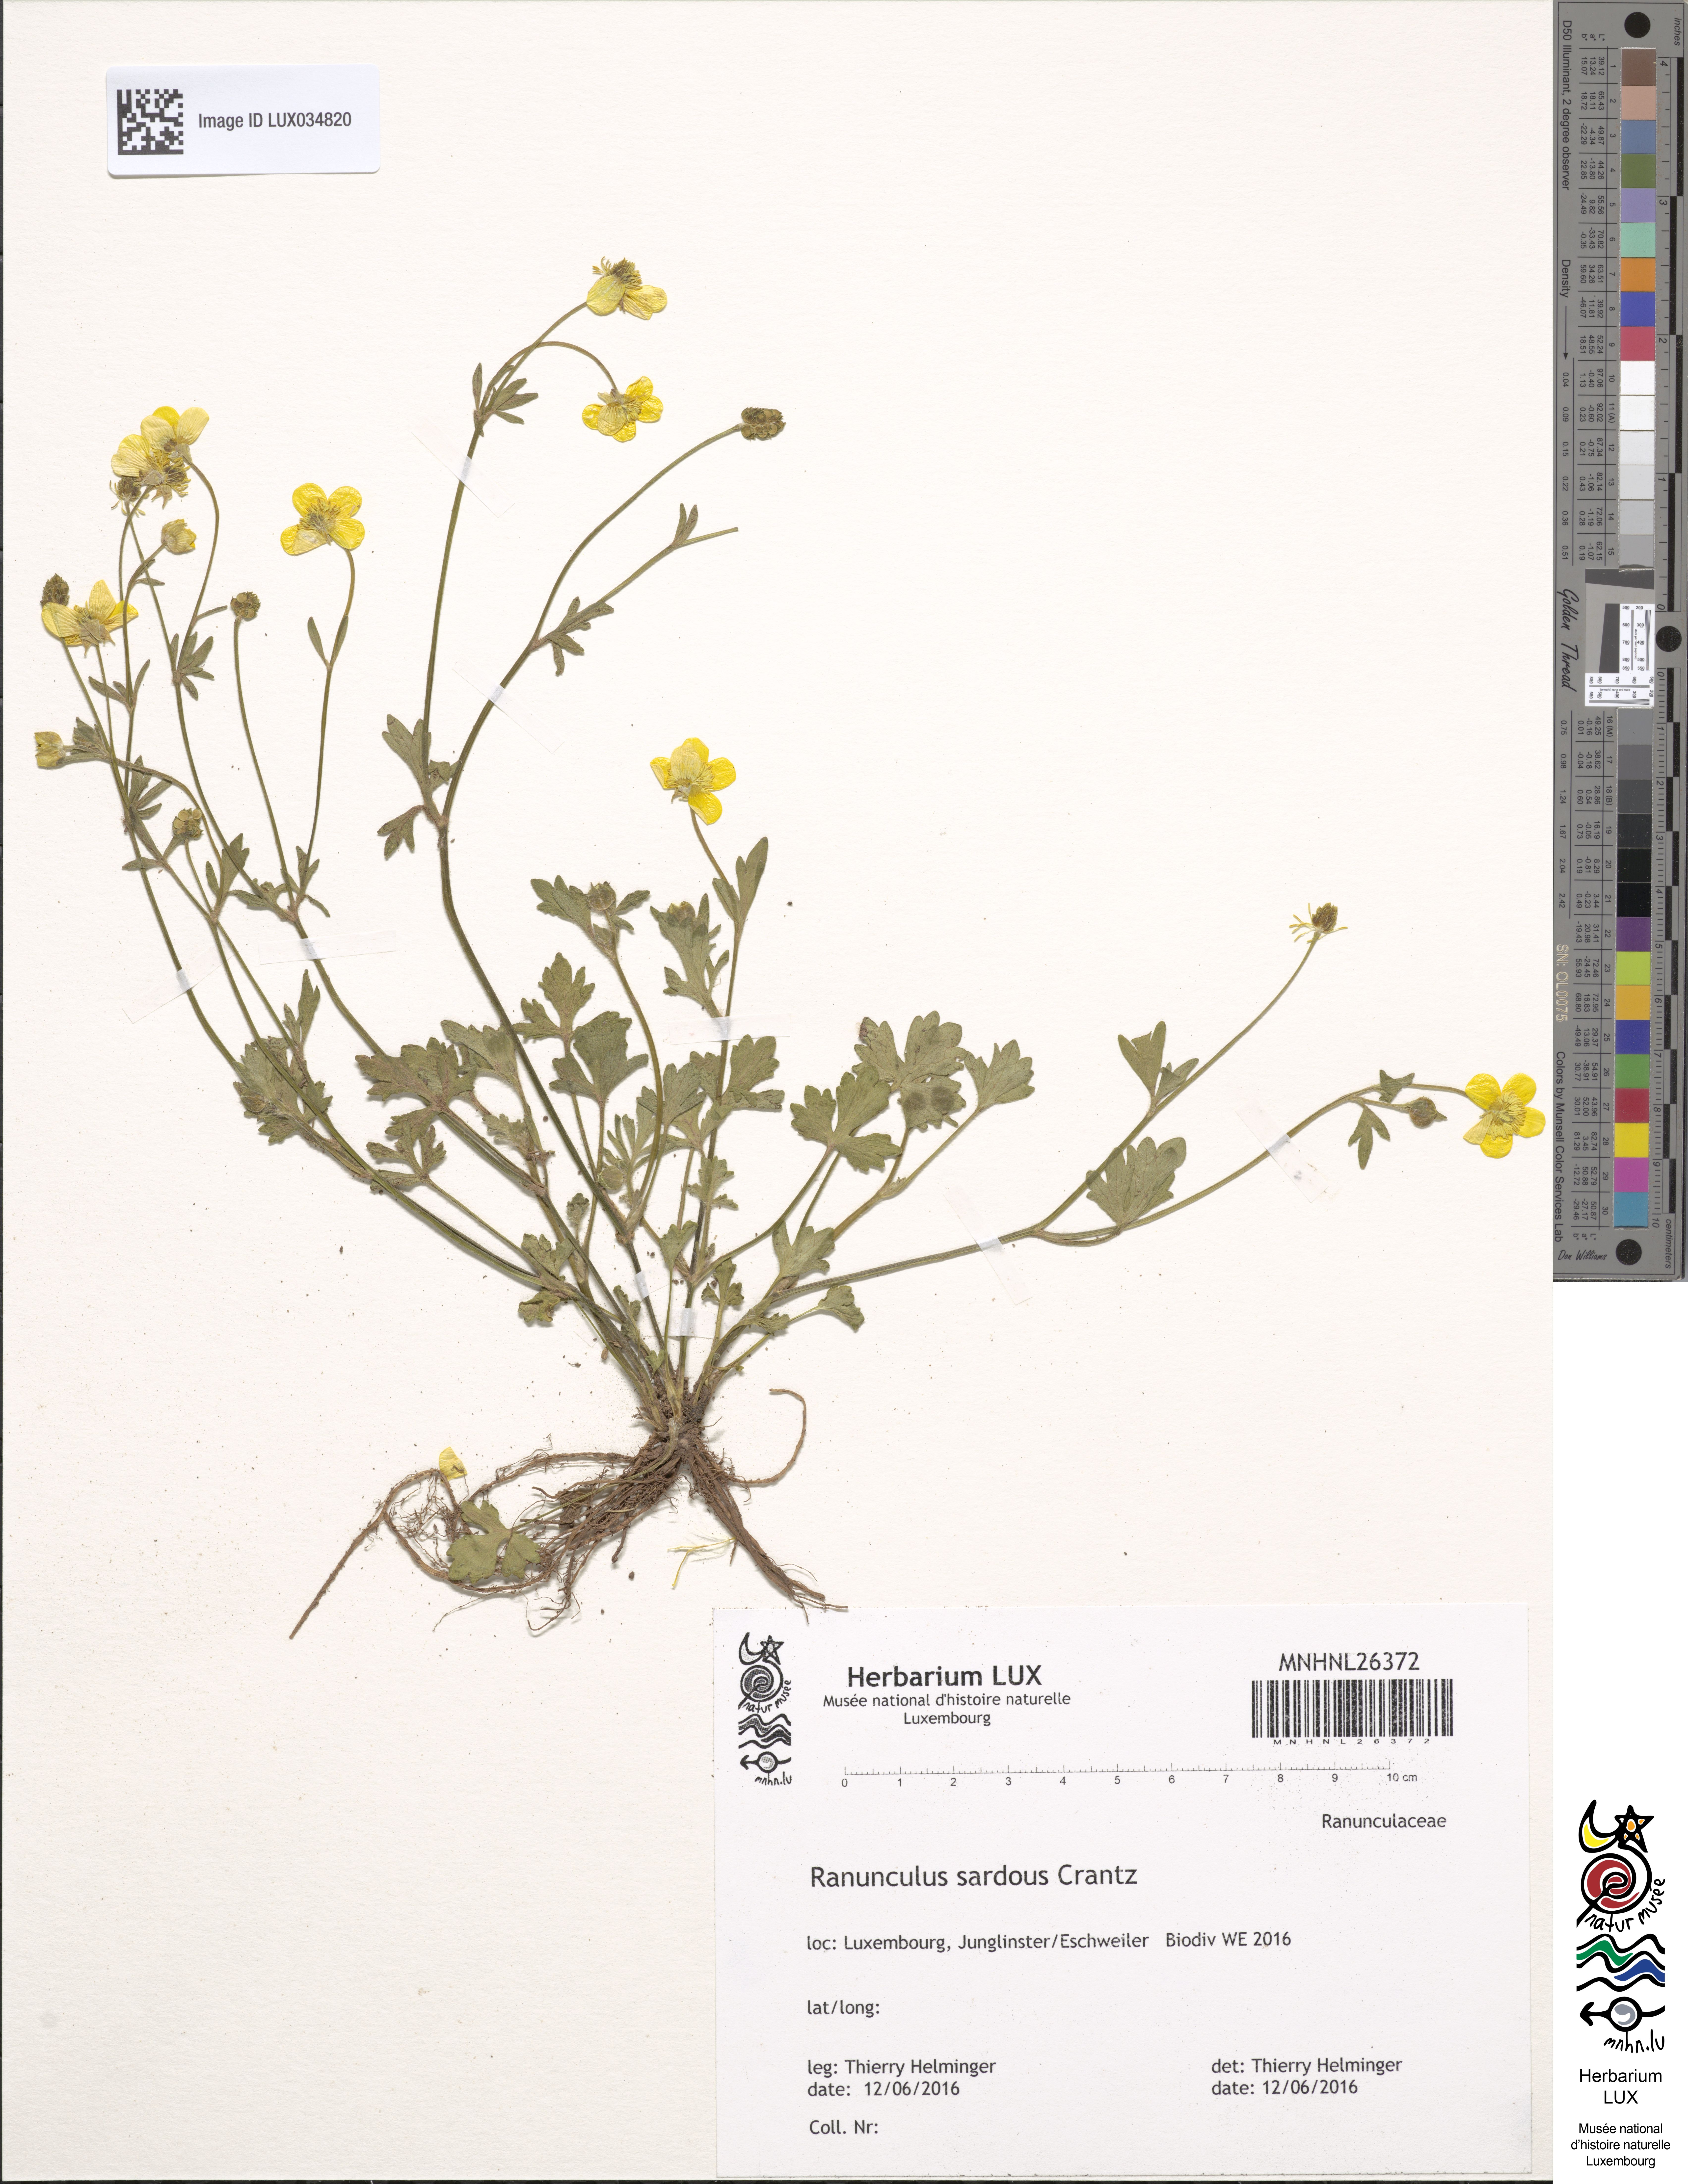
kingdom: Plantae
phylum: Tracheophyta
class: Magnoliopsida
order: Ranunculales
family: Ranunculaceae
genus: Ranunculus
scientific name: Ranunculus sardous
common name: Hairy buttercup
